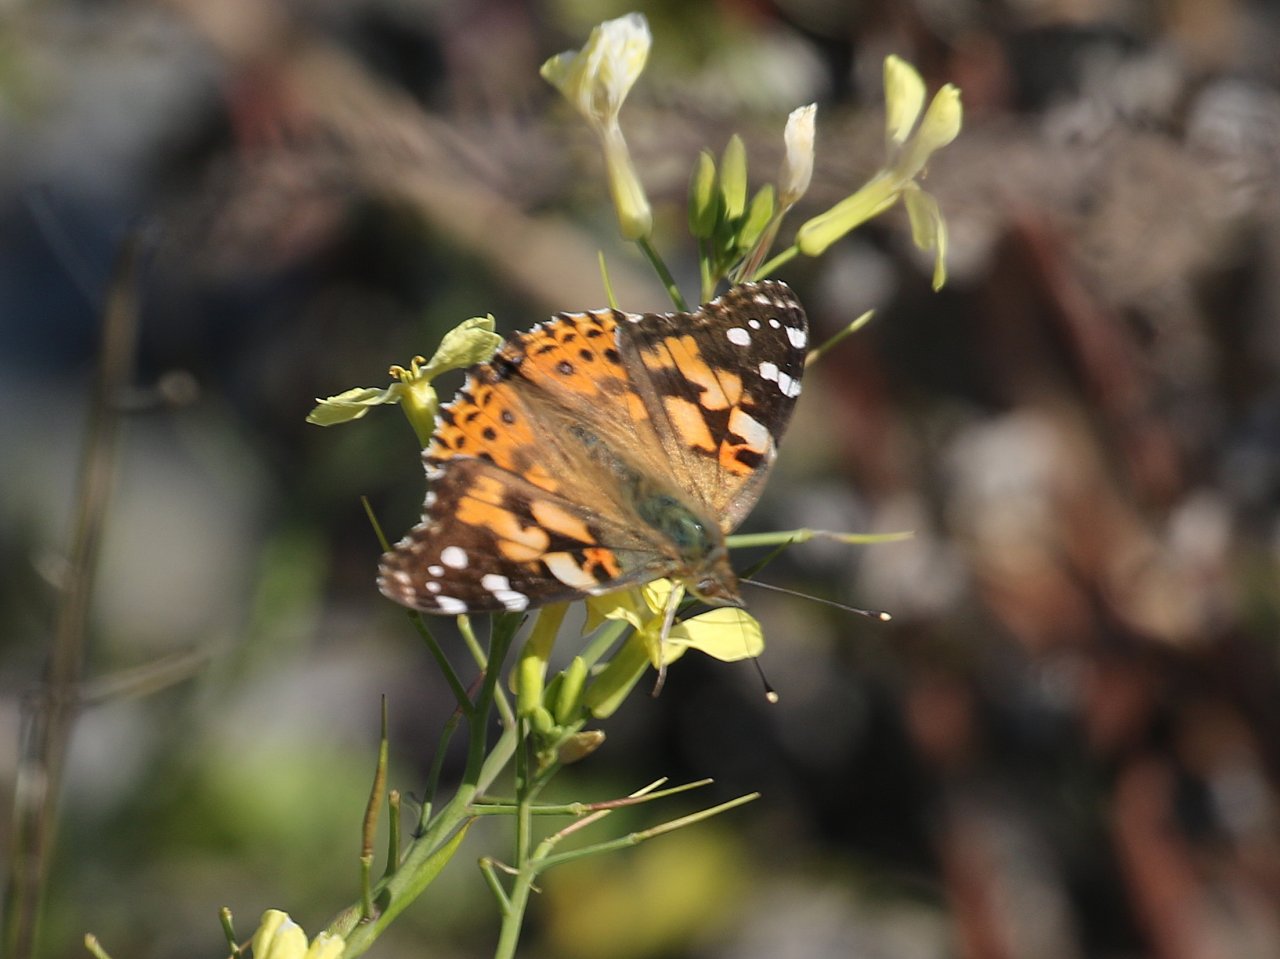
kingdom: Animalia
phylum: Arthropoda
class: Insecta
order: Lepidoptera
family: Nymphalidae
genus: Vanessa
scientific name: Vanessa cardui
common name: Painted Lady
